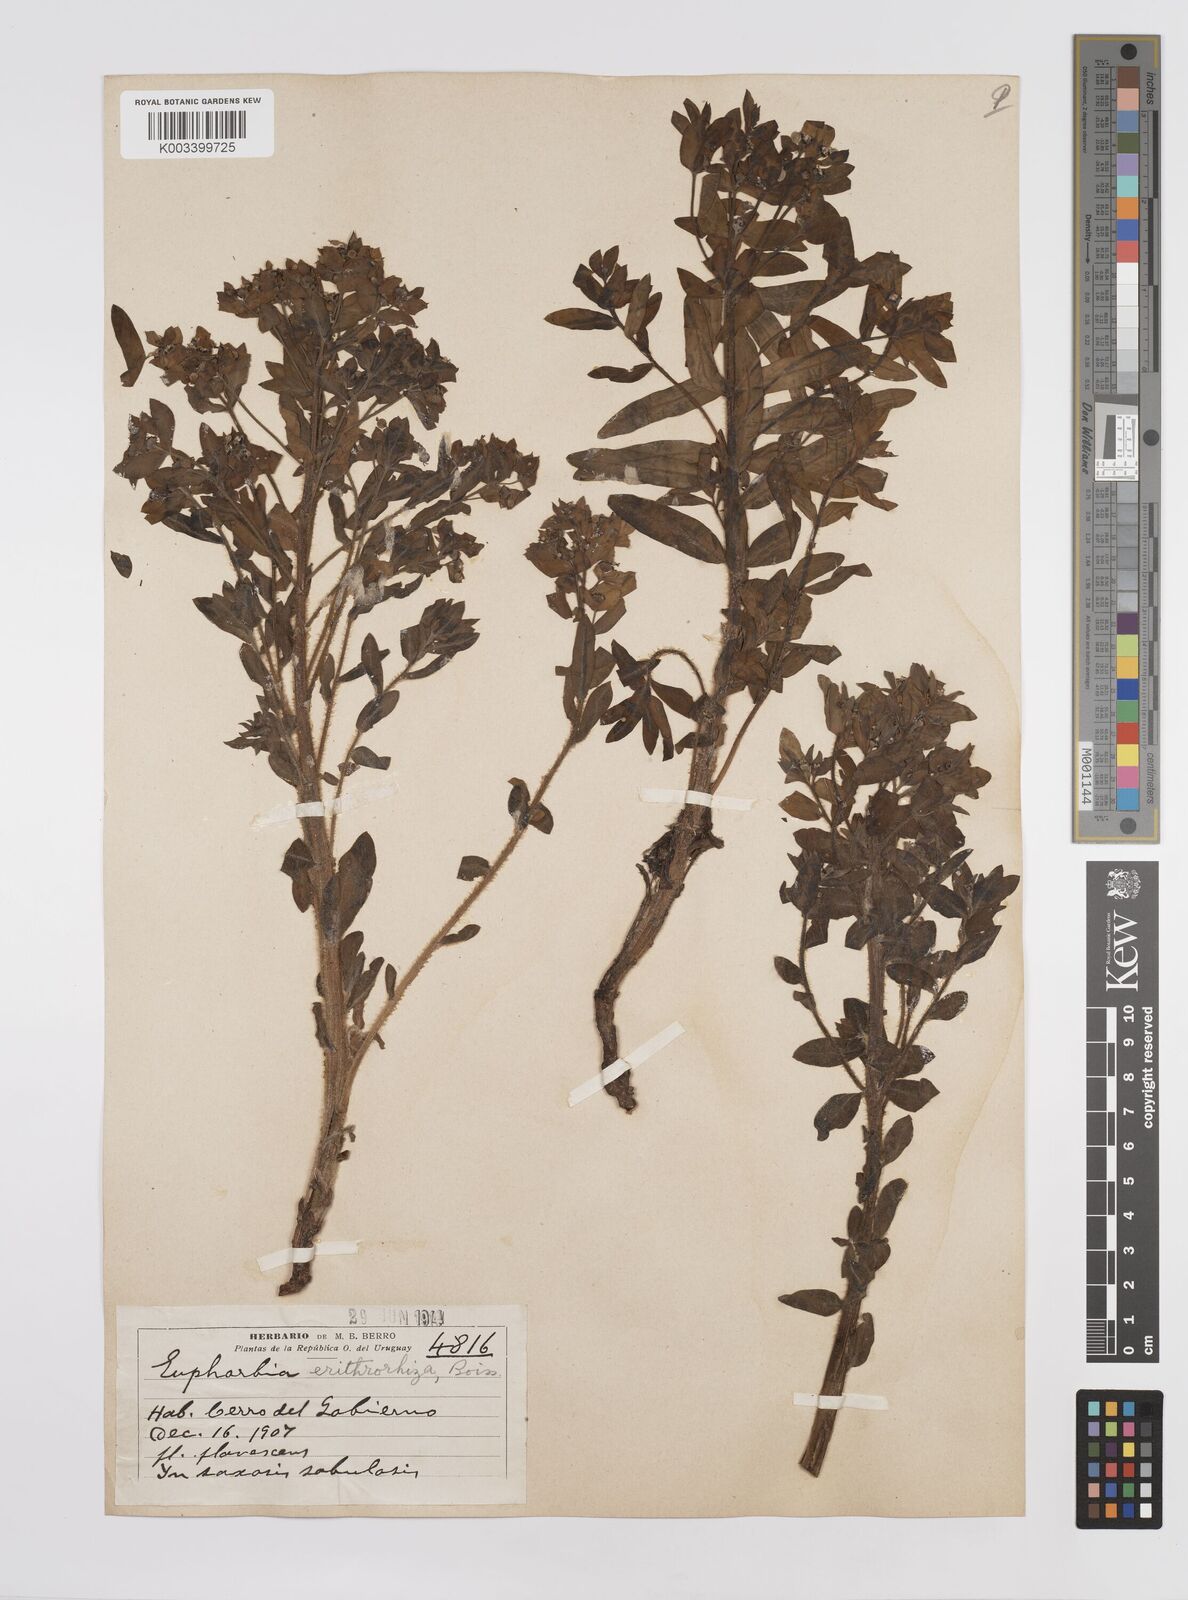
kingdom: Plantae
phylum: Tracheophyta
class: Magnoliopsida
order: Malpighiales
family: Euphorbiaceae
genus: Euphorbia
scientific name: Euphorbia
